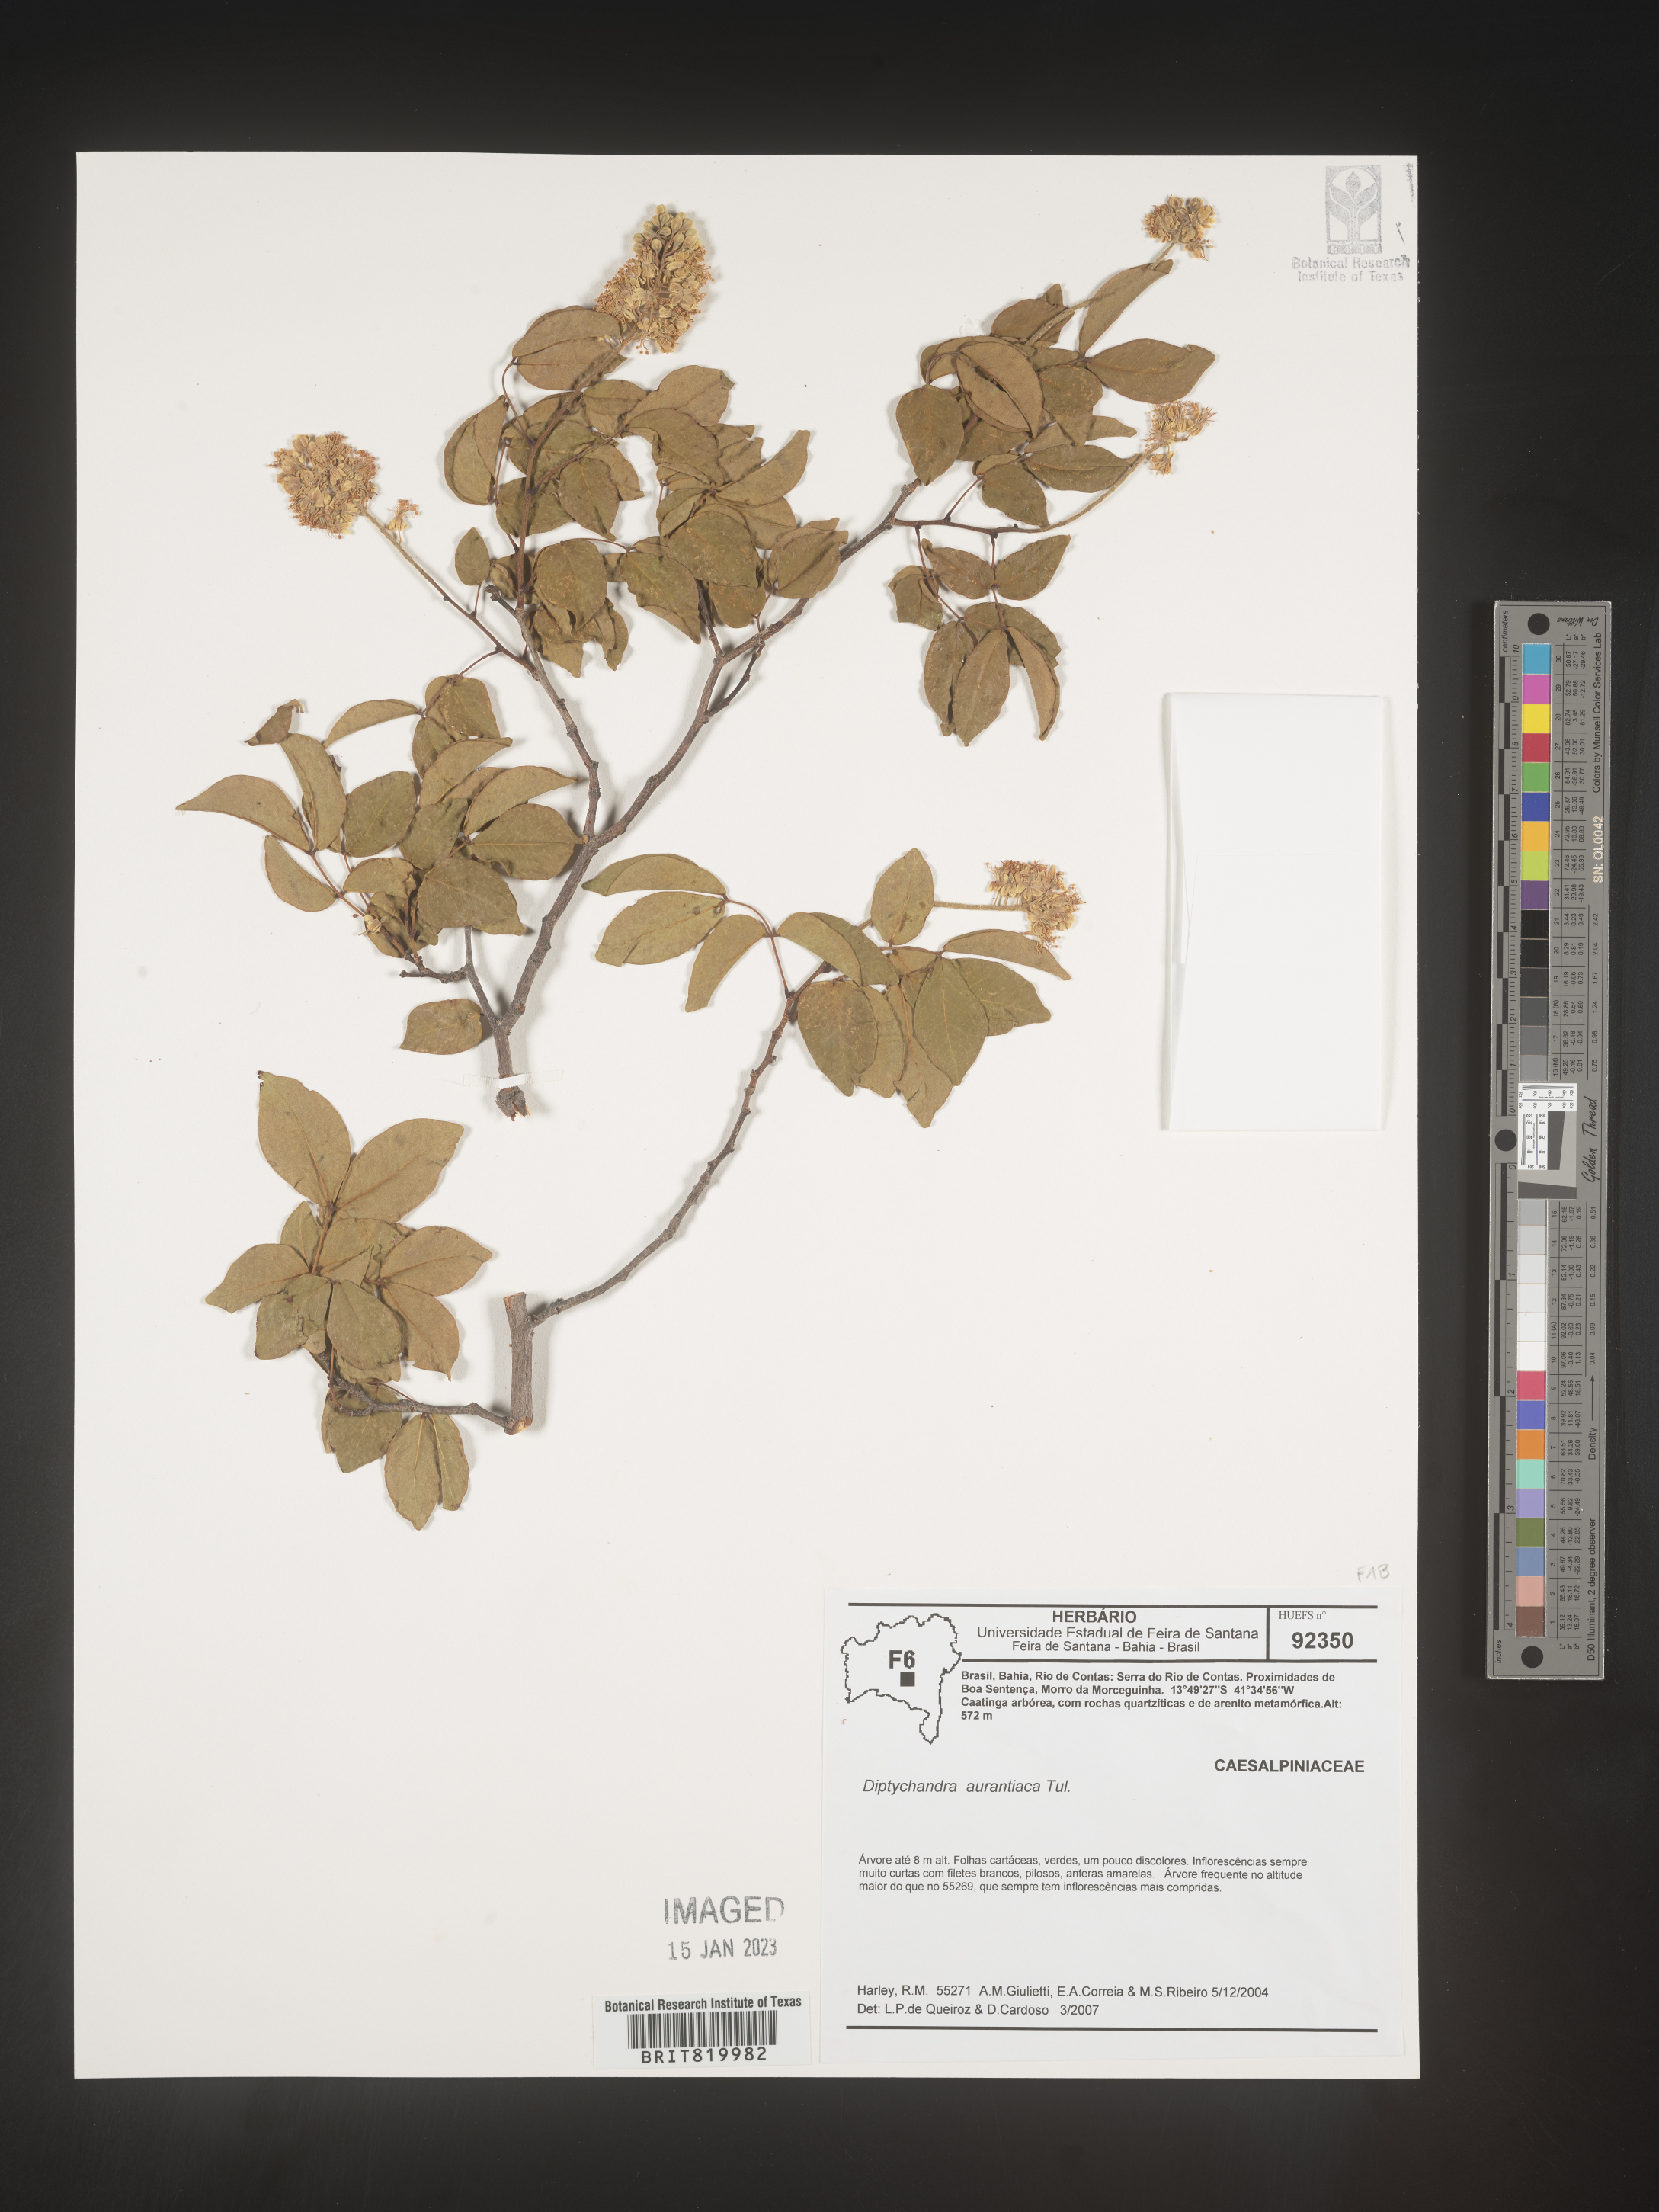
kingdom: Plantae
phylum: Tracheophyta
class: Magnoliopsida
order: Fabales
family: Fabaceae
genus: Diptychandra
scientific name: Diptychandra
